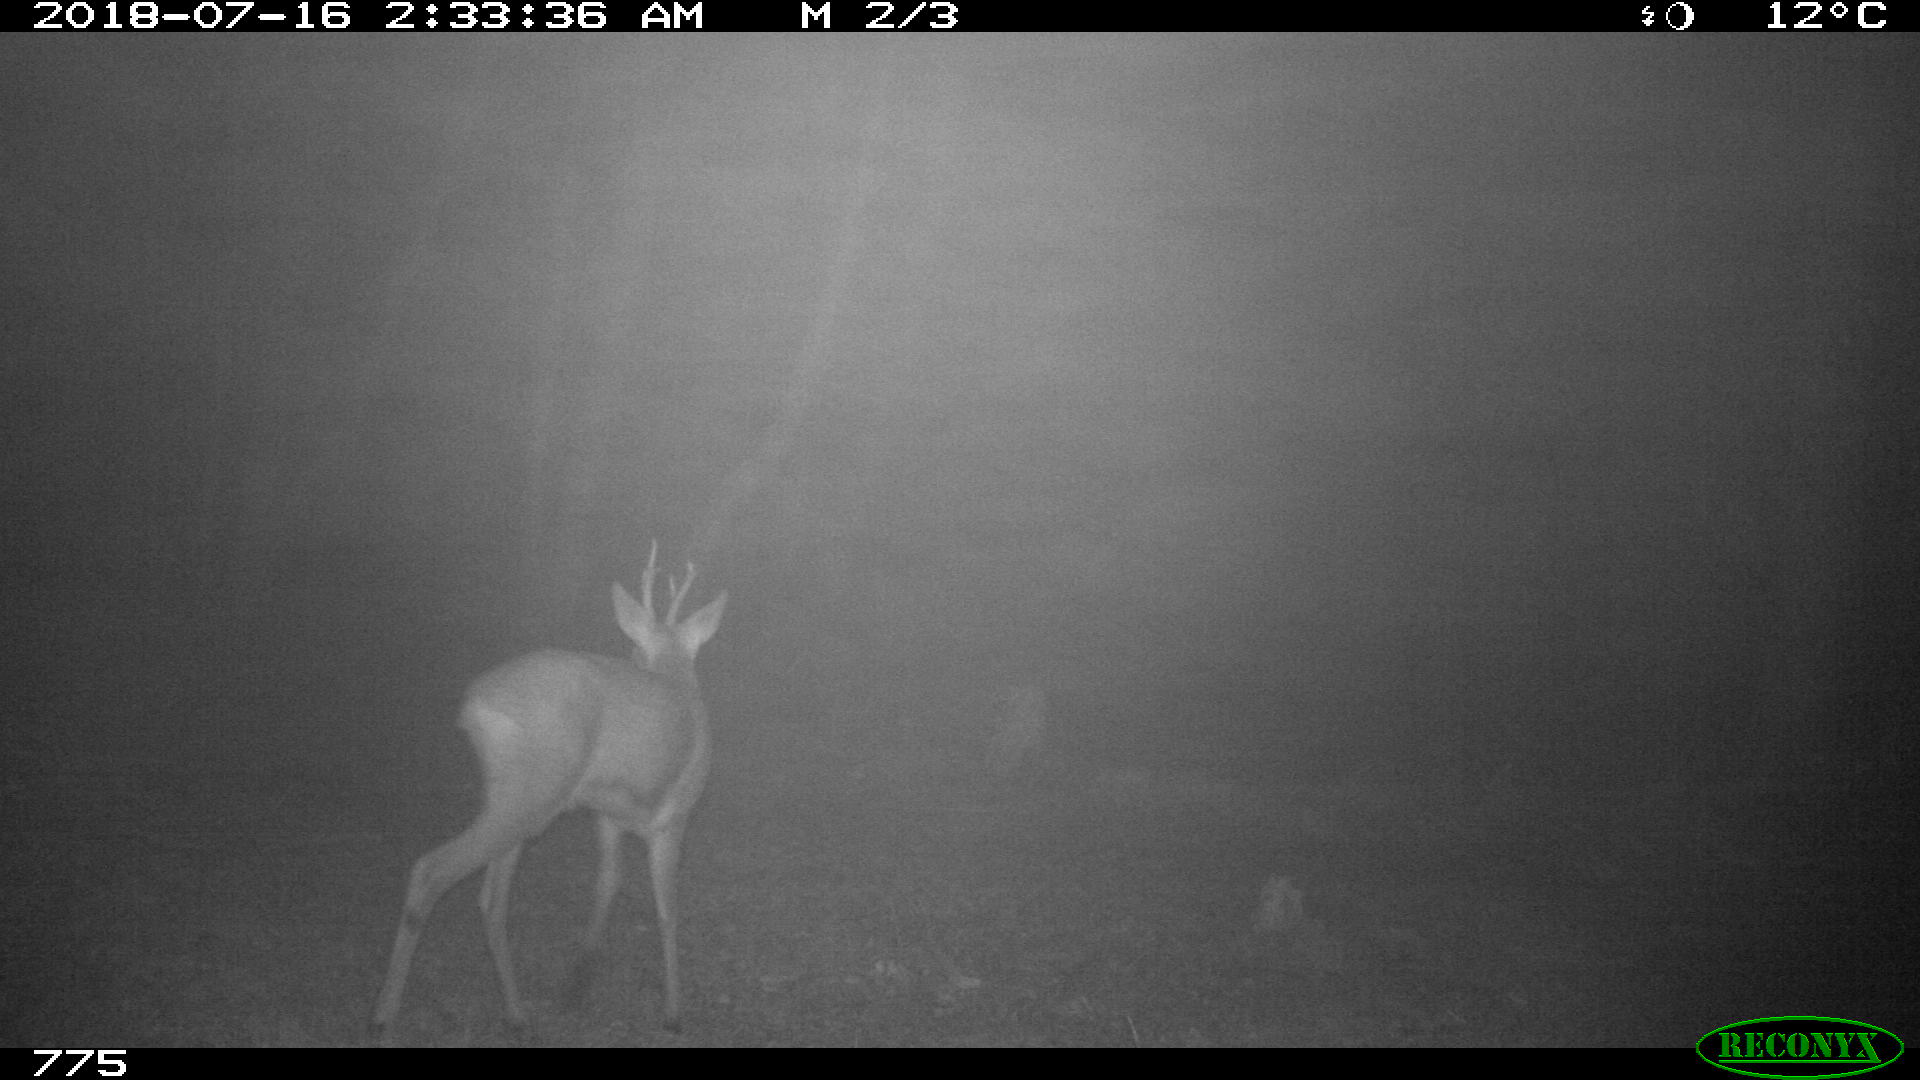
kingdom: Animalia
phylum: Chordata
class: Mammalia
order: Artiodactyla
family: Cervidae
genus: Capreolus
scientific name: Capreolus capreolus
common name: Western roe deer
